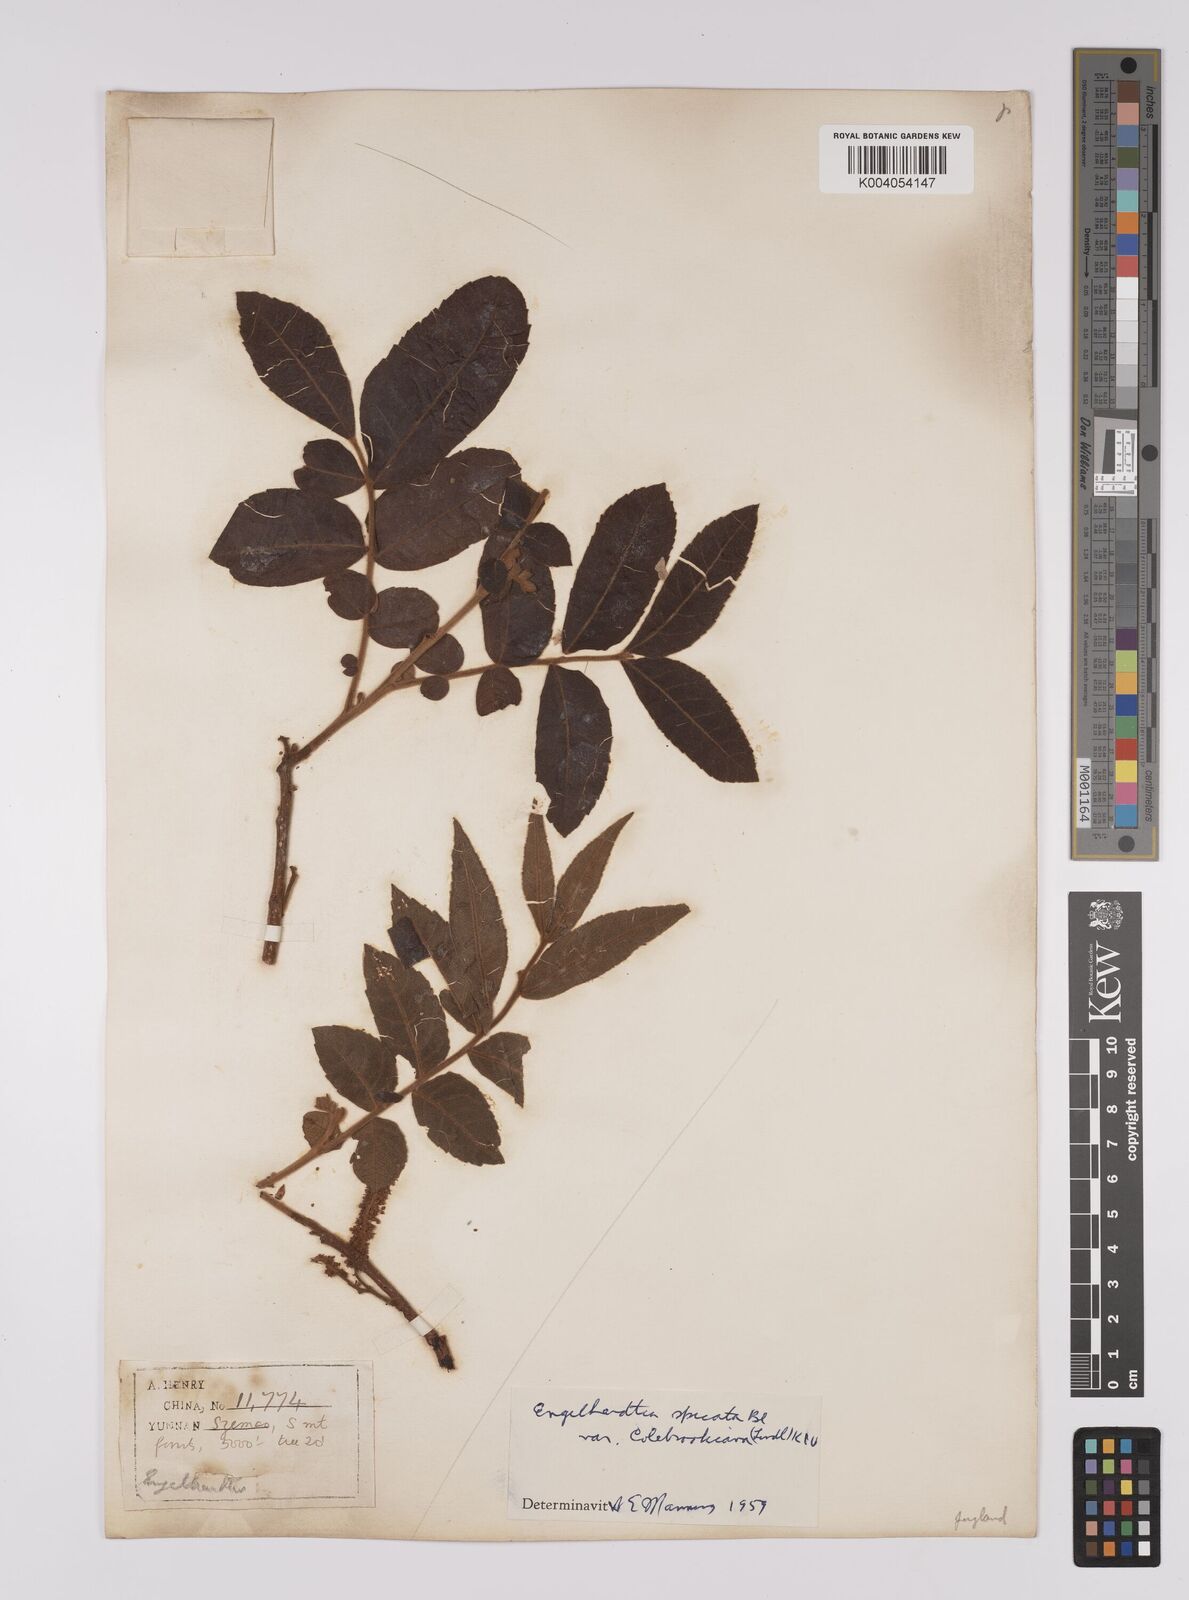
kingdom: Plantae
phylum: Tracheophyta
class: Magnoliopsida
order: Fagales
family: Juglandaceae
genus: Engelhardia
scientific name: Engelhardia spicata
